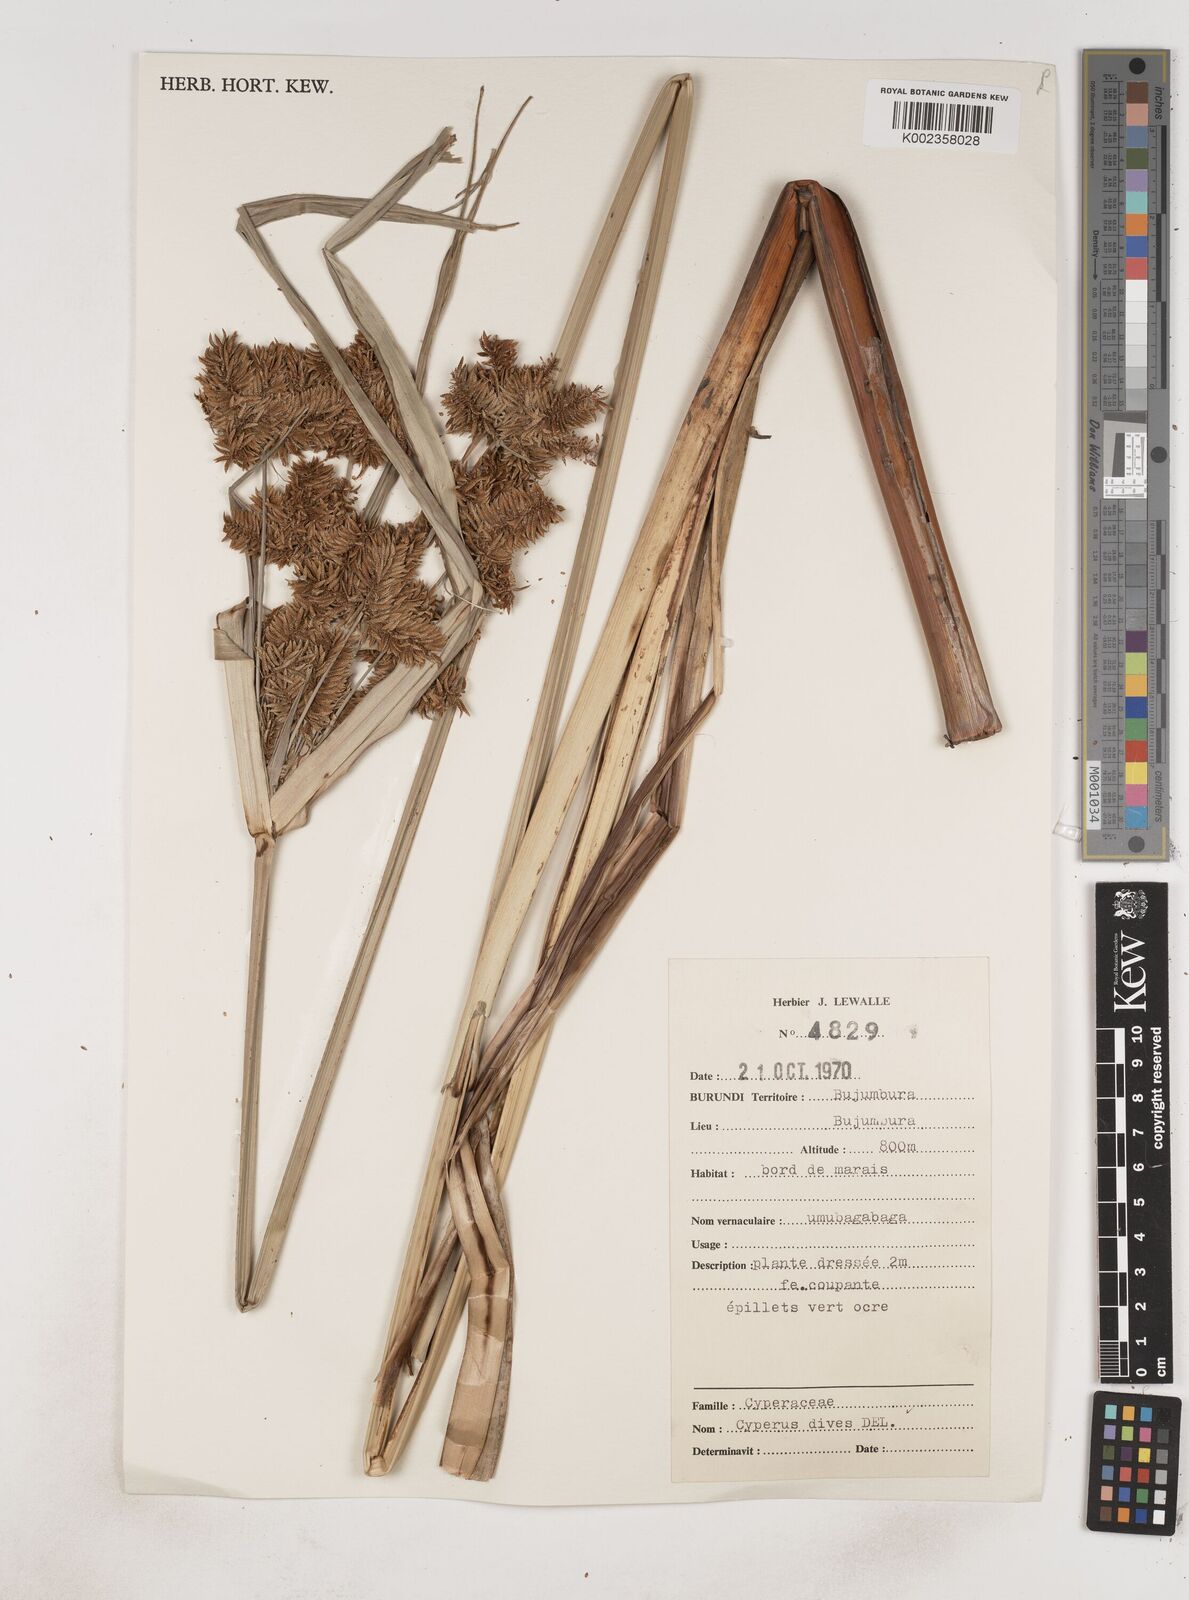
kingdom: Plantae
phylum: Tracheophyta
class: Liliopsida
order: Poales
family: Cyperaceae
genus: Cyperus
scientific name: Cyperus dives
